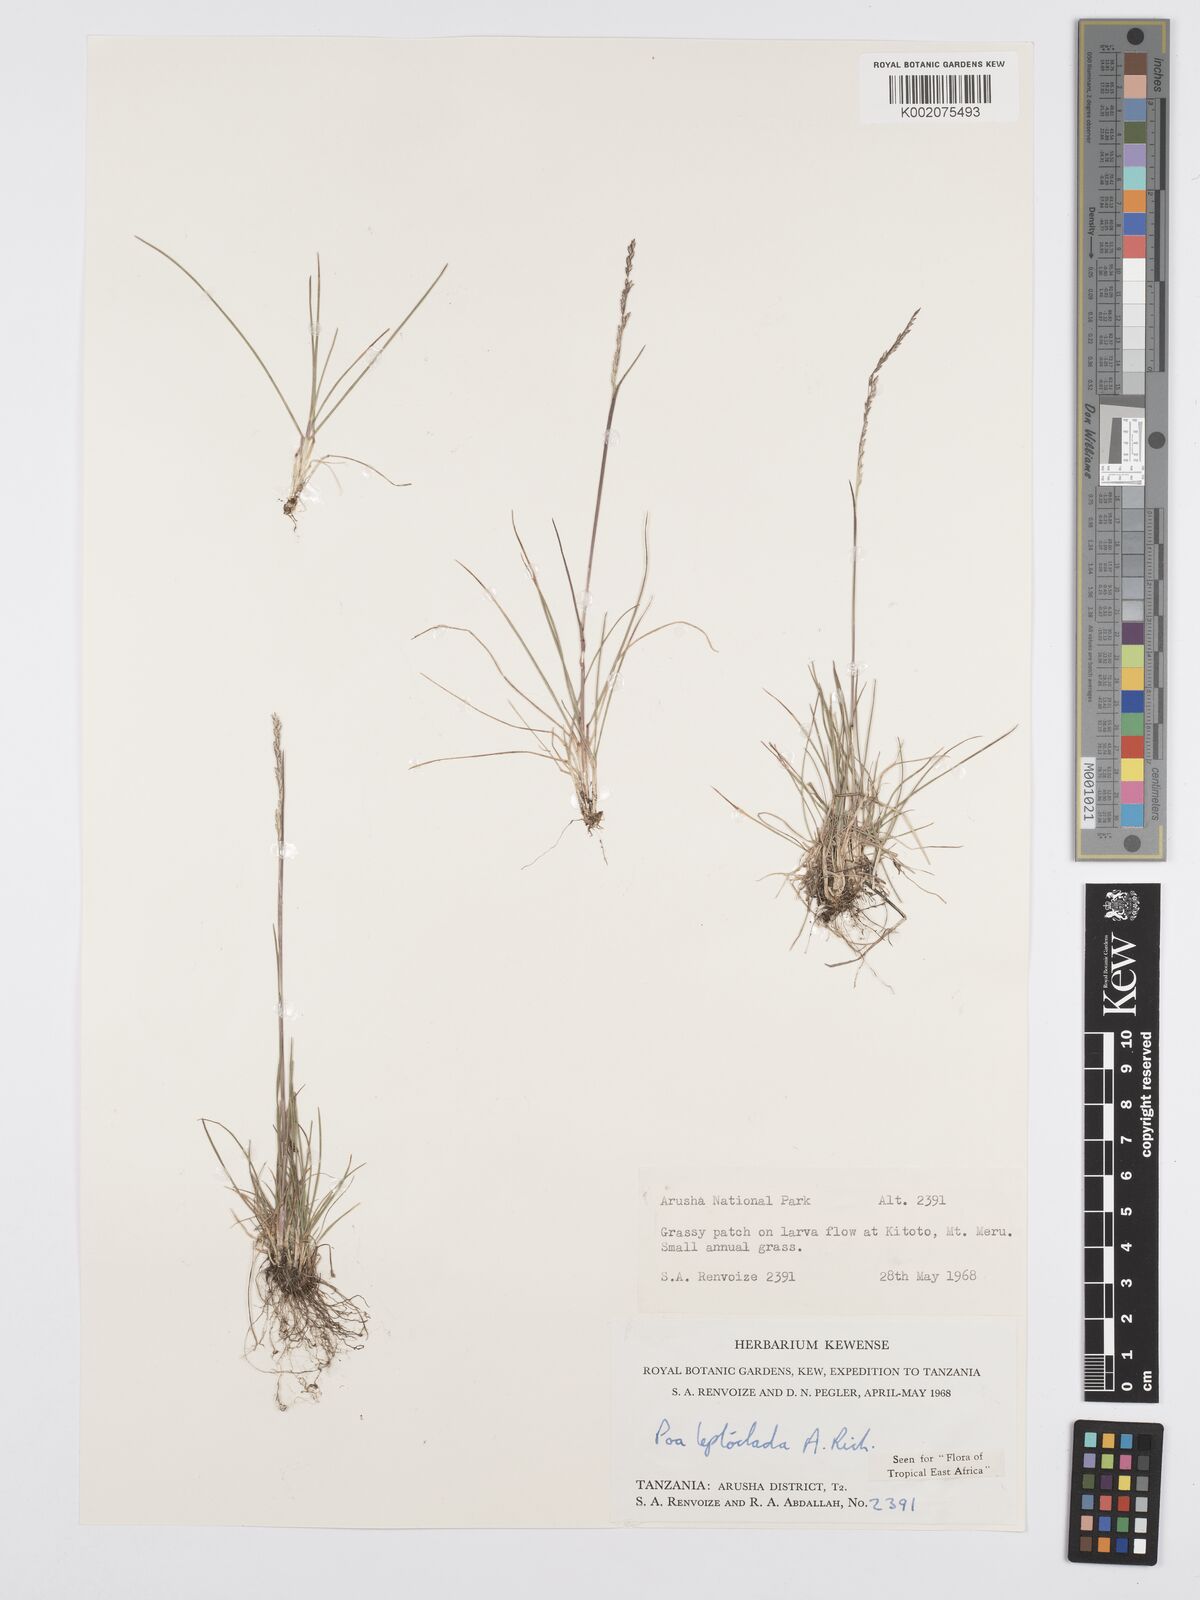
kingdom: Plantae
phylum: Tracheophyta
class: Liliopsida
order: Poales
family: Poaceae
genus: Poa
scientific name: Poa leptoclada
